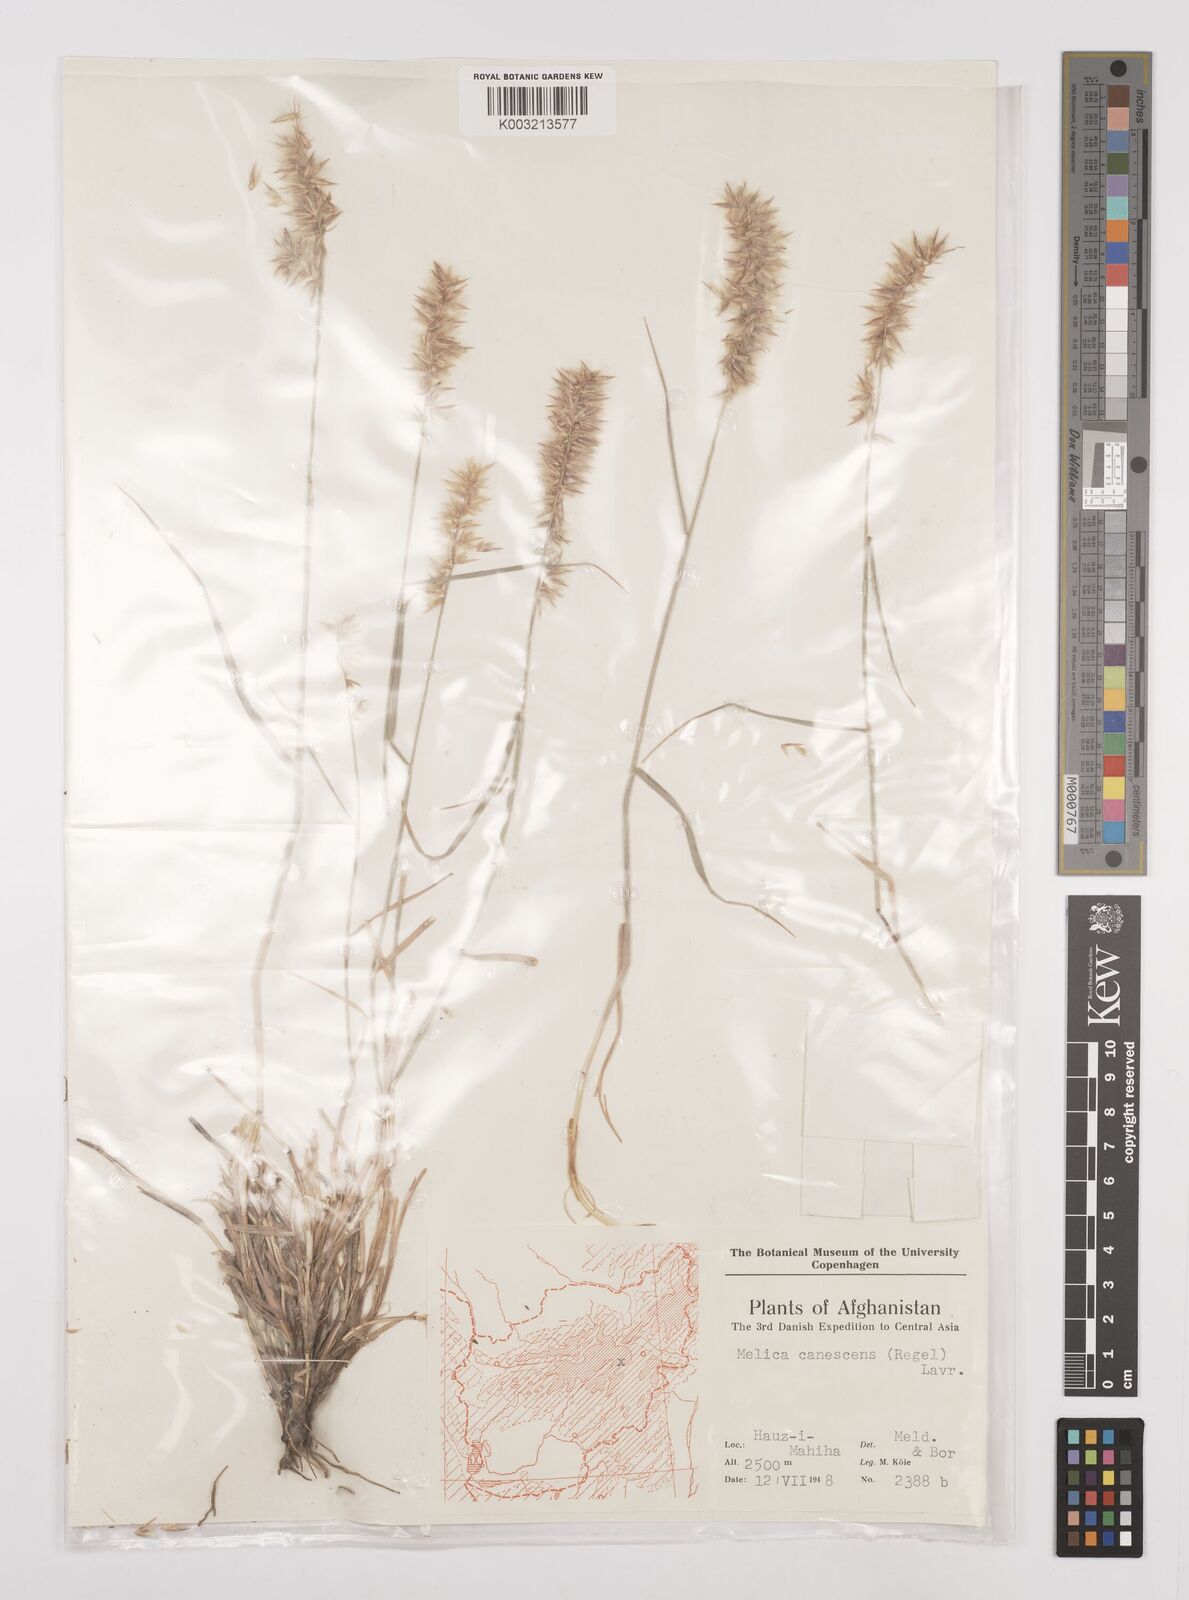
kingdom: Plantae
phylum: Tracheophyta
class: Liliopsida
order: Poales
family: Poaceae
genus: Melica
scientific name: Melica persica
